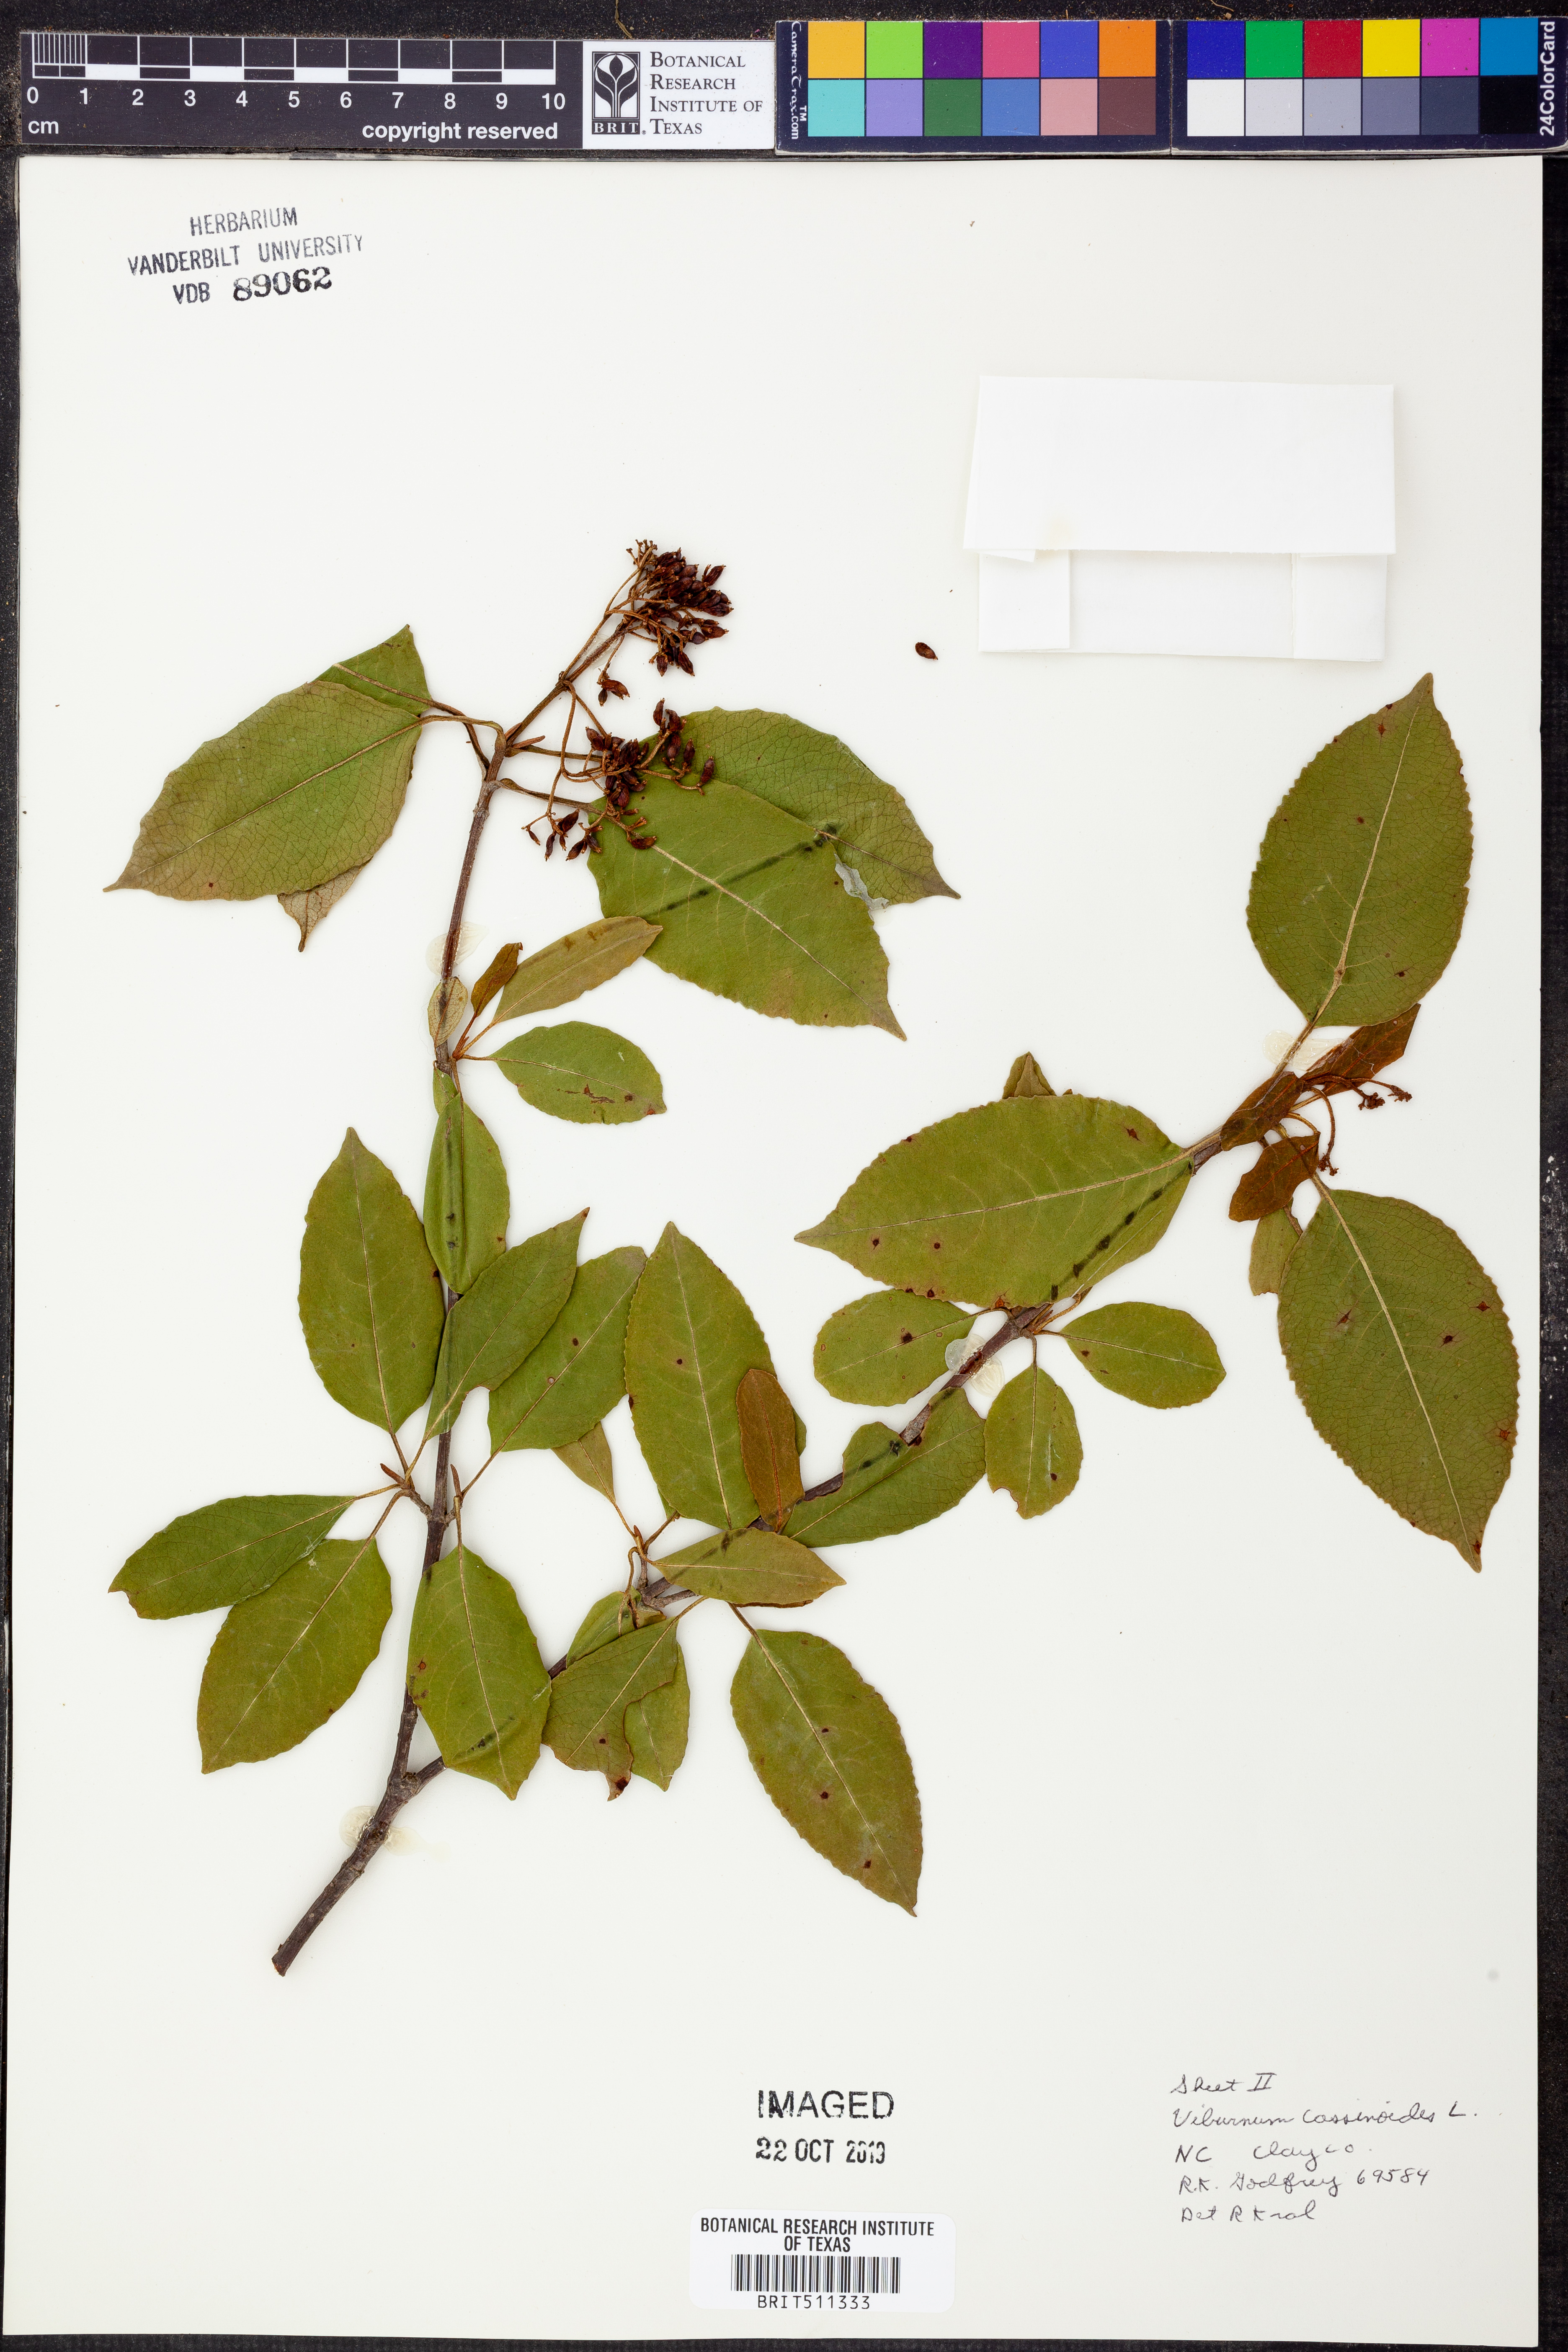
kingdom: Plantae
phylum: Tracheophyta
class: Magnoliopsida
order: Dipsacales
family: Viburnaceae
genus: Viburnum
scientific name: Viburnum cassinoides
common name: Swamp haw
